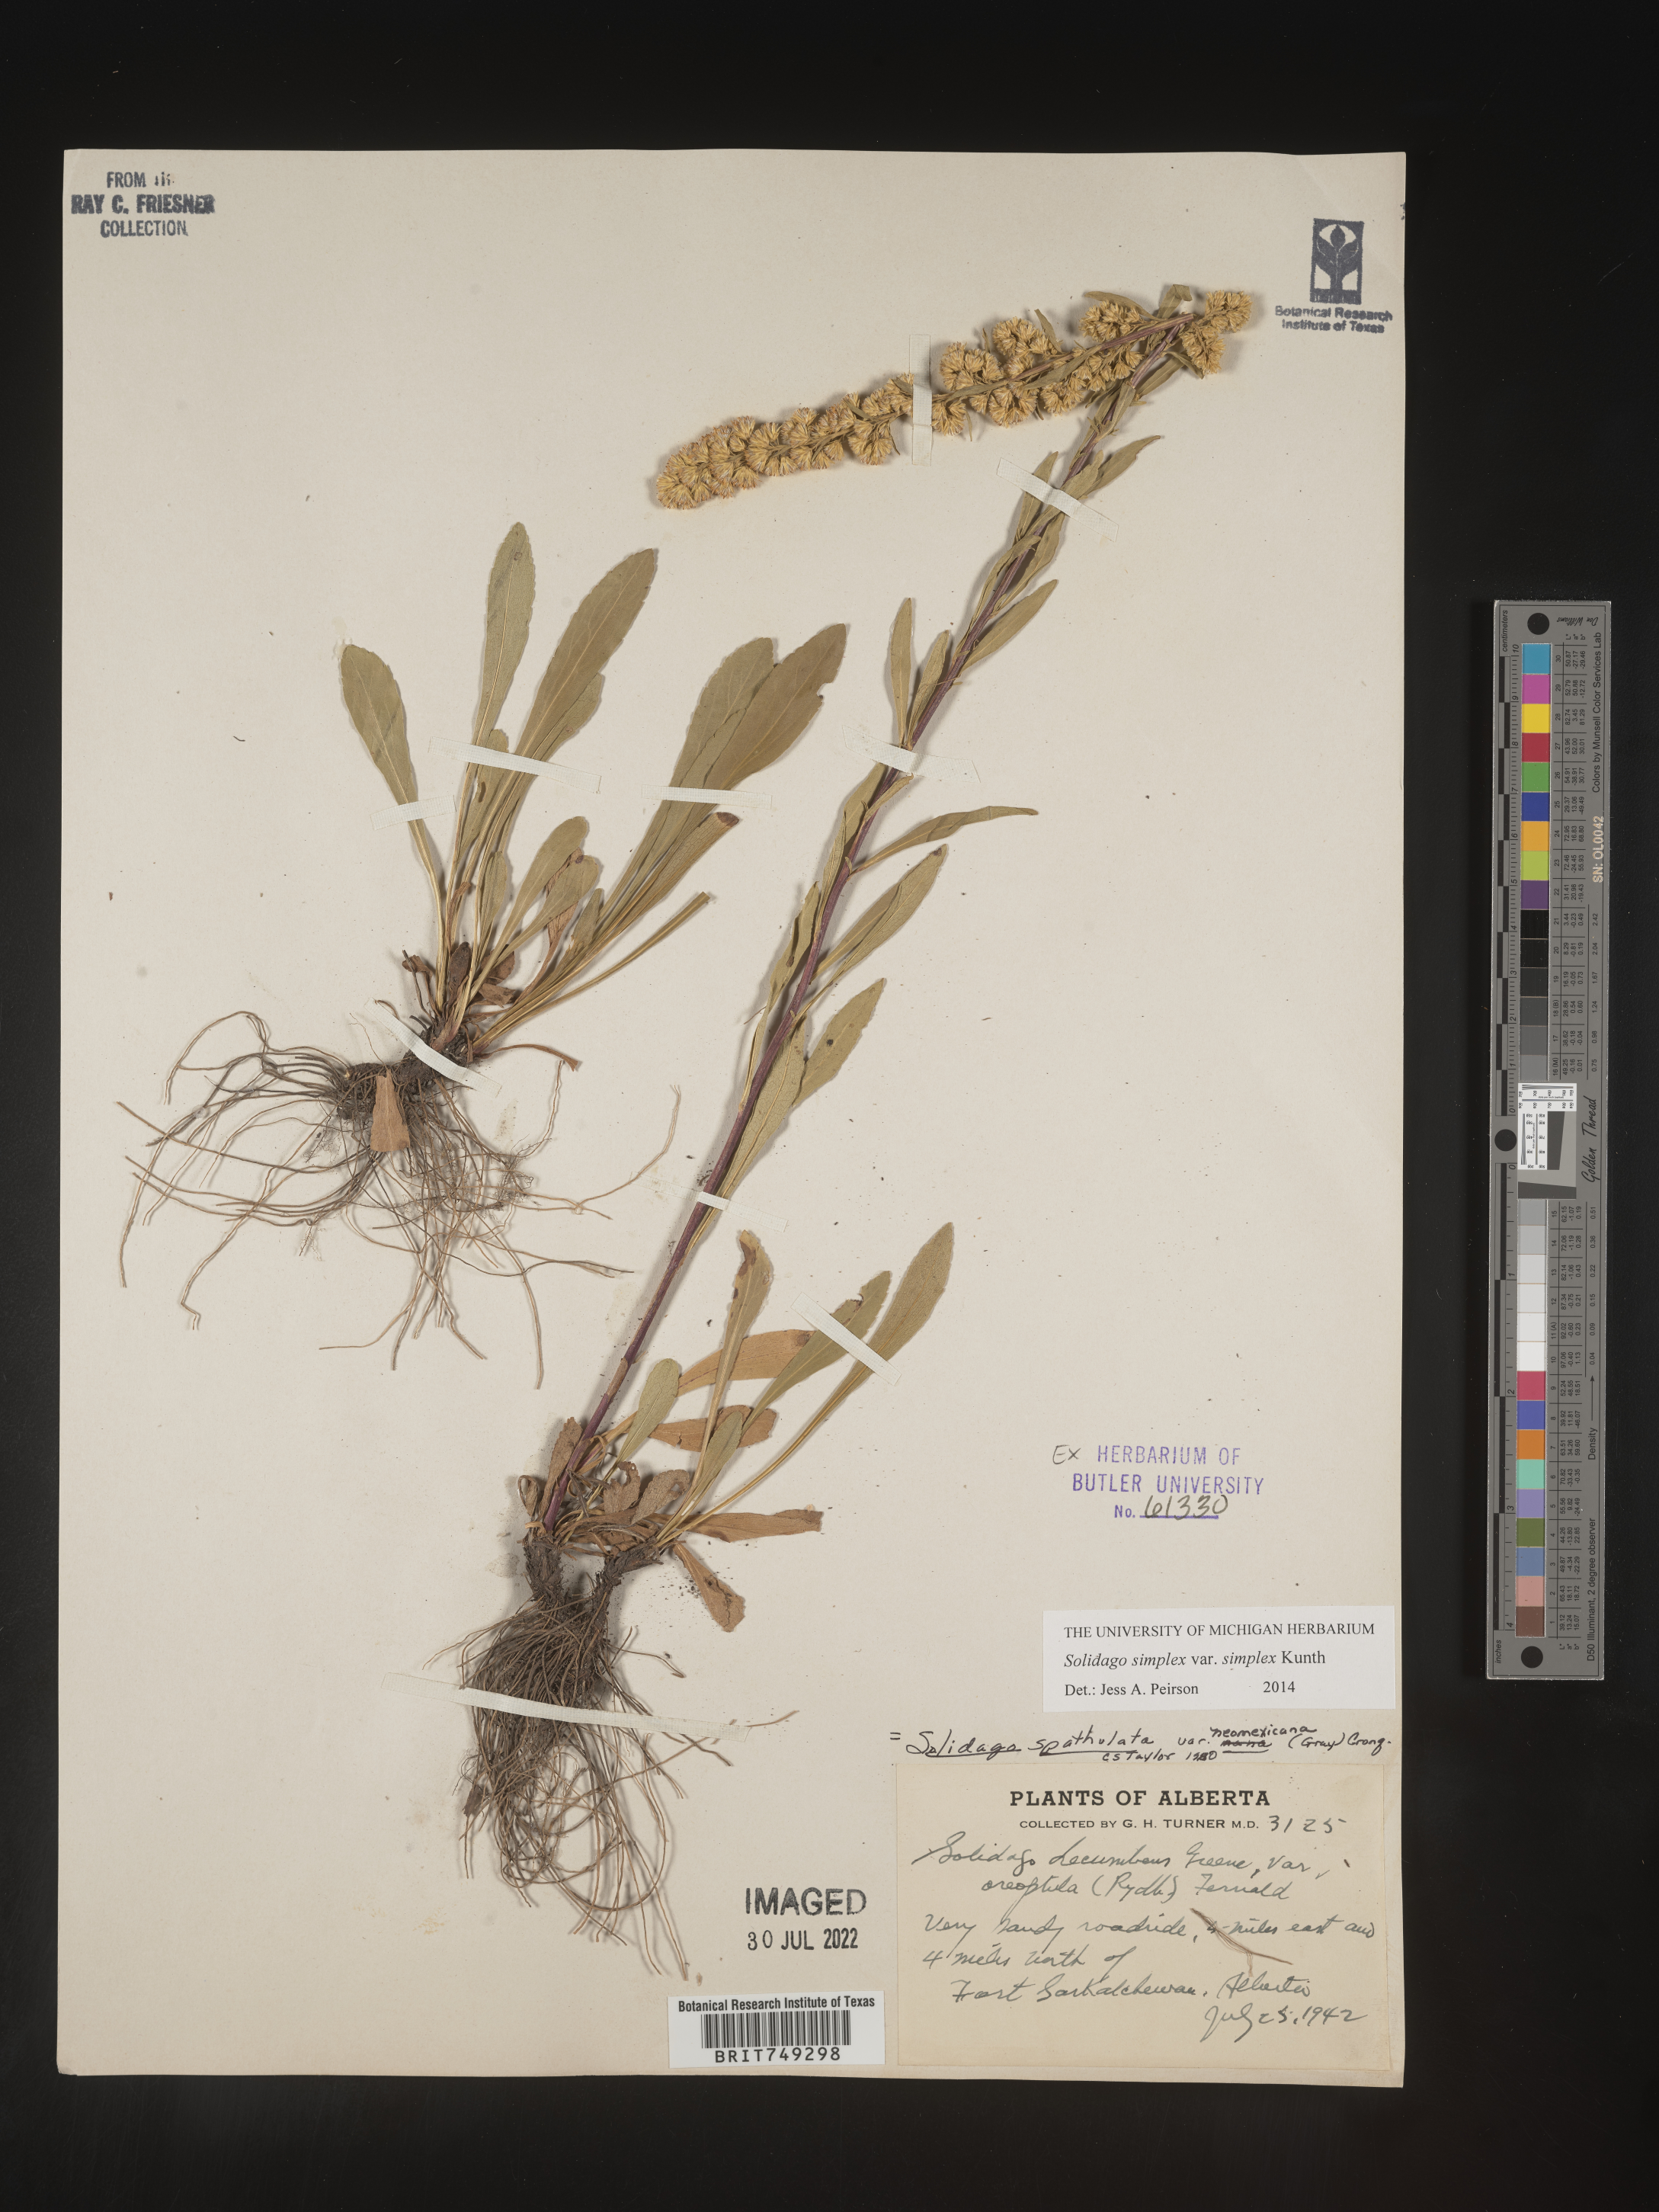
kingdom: Plantae
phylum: Tracheophyta
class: Magnoliopsida
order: Asterales
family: Asteraceae
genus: Solidago
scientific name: Solidago simplex
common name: Sticky goldenrod
